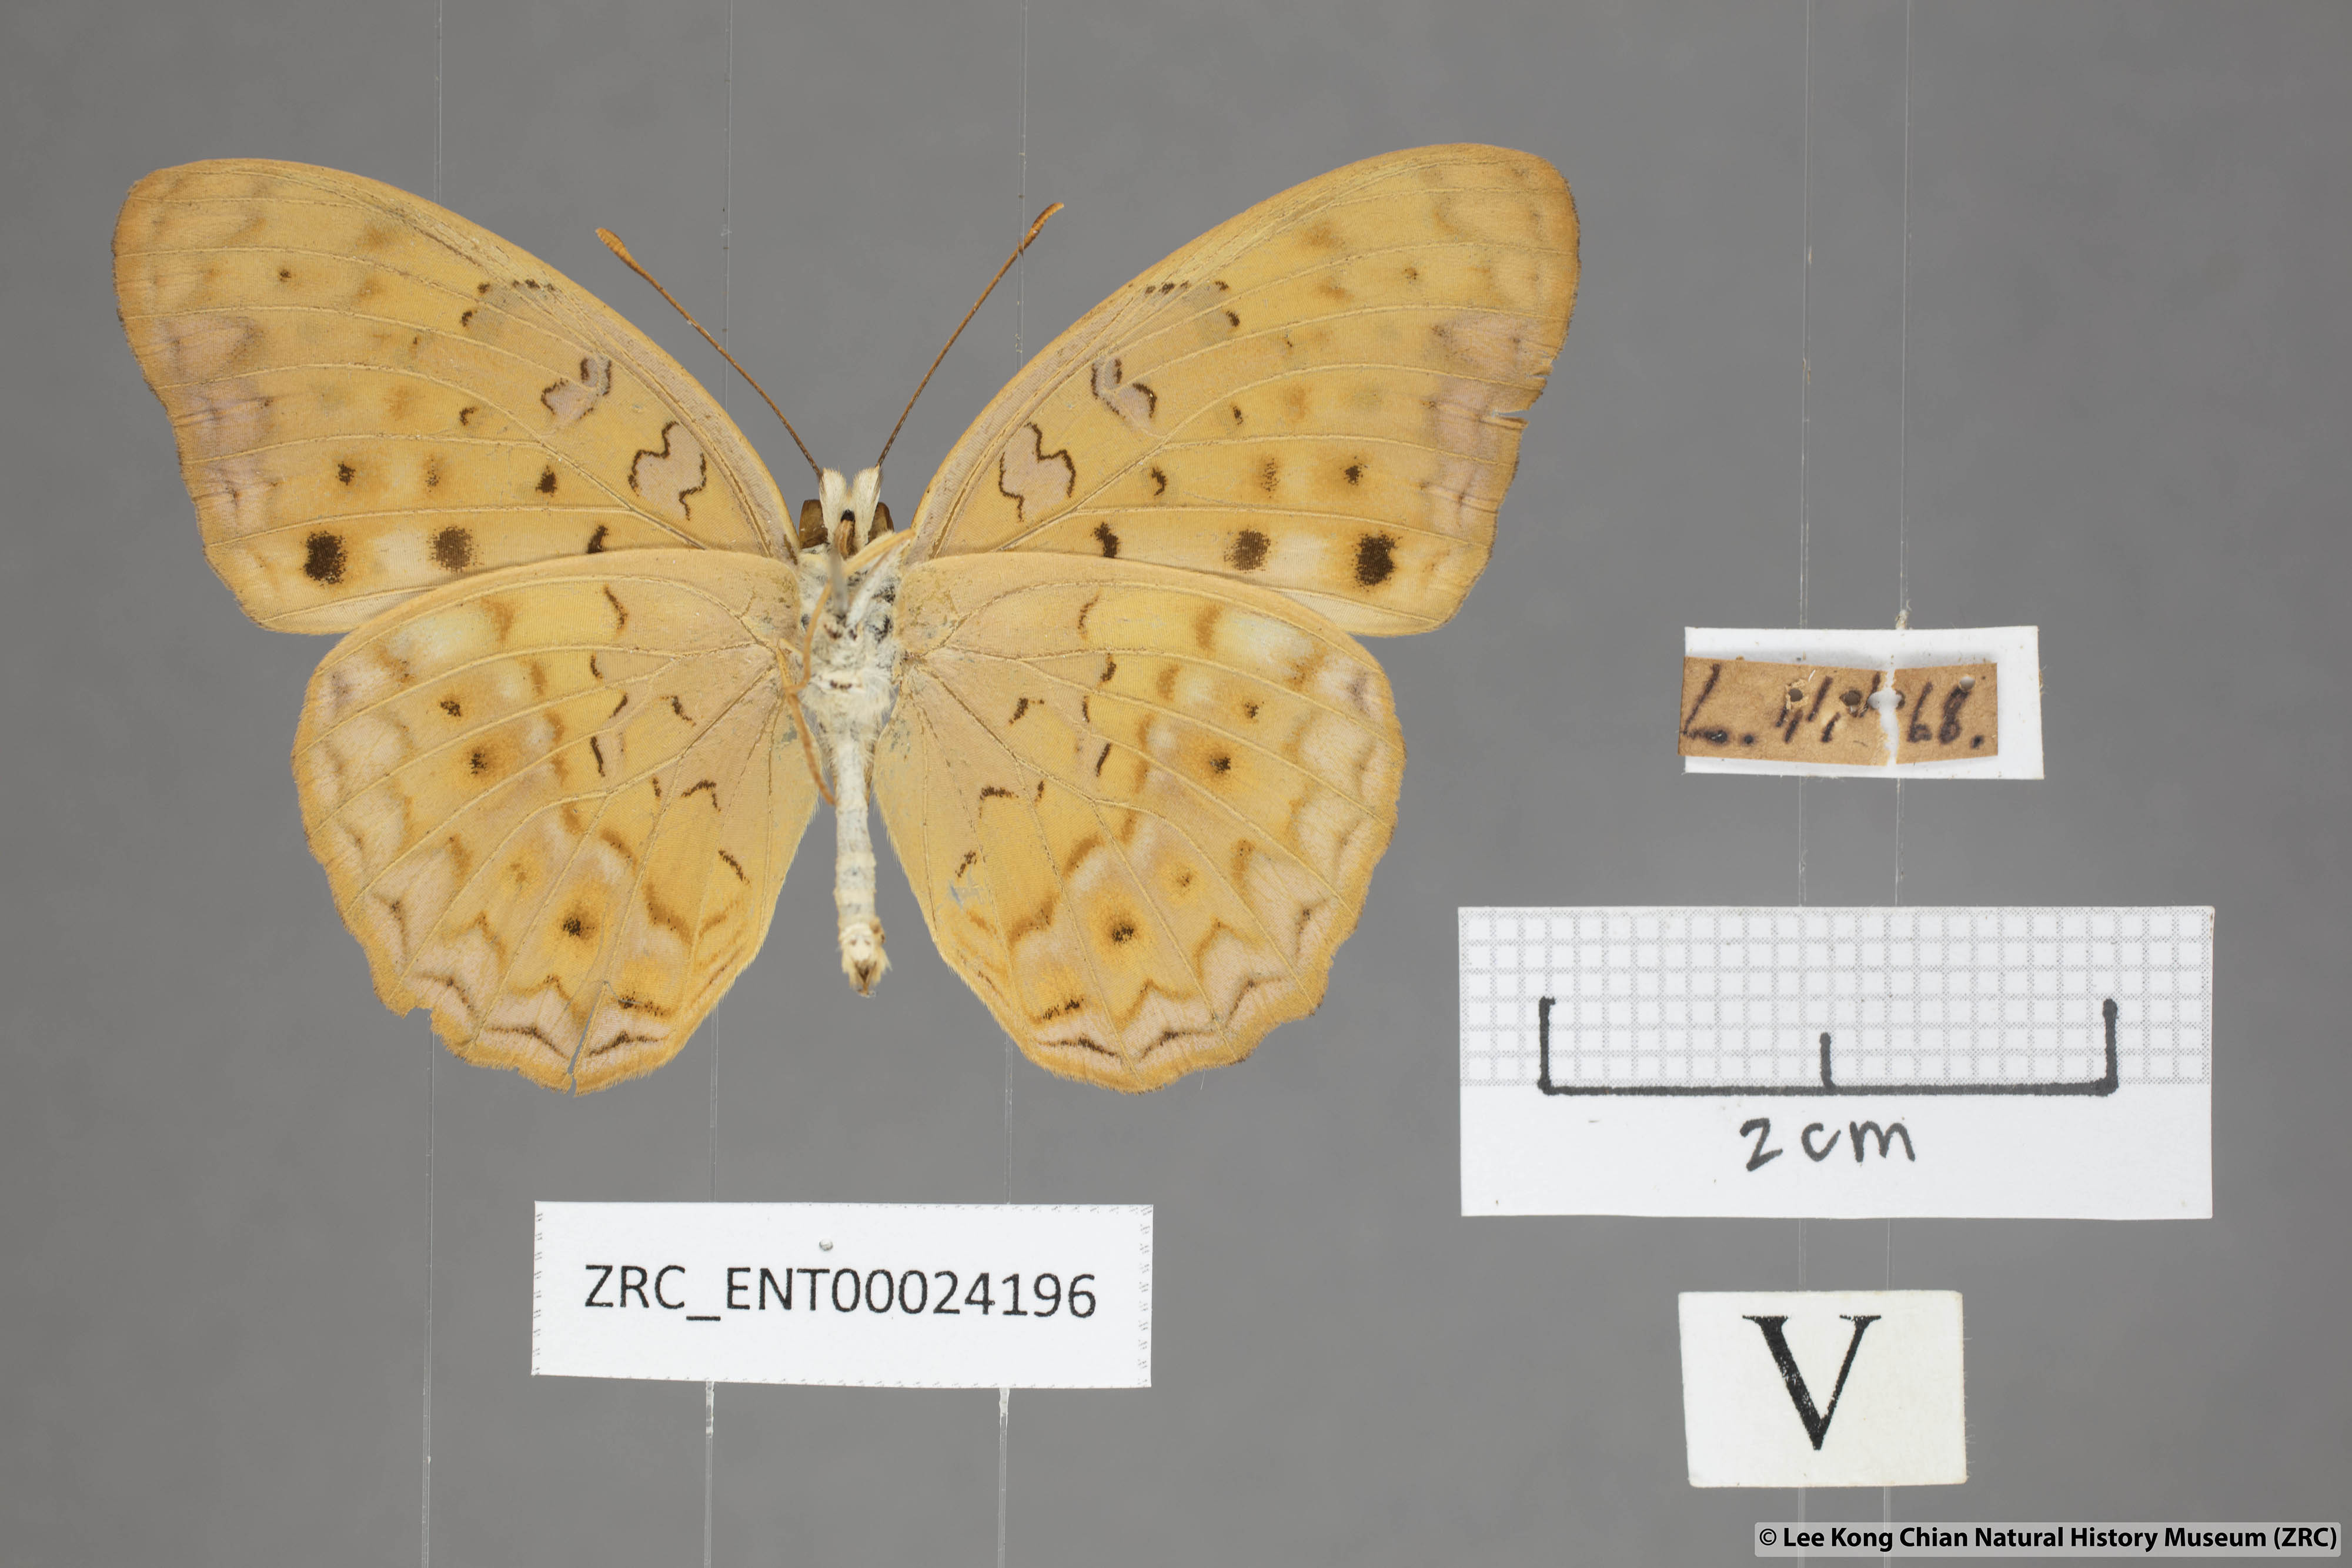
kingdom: Animalia
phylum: Arthropoda
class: Insecta
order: Lepidoptera
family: Nymphalidae
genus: Phalanta
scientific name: Phalanta phalantha
